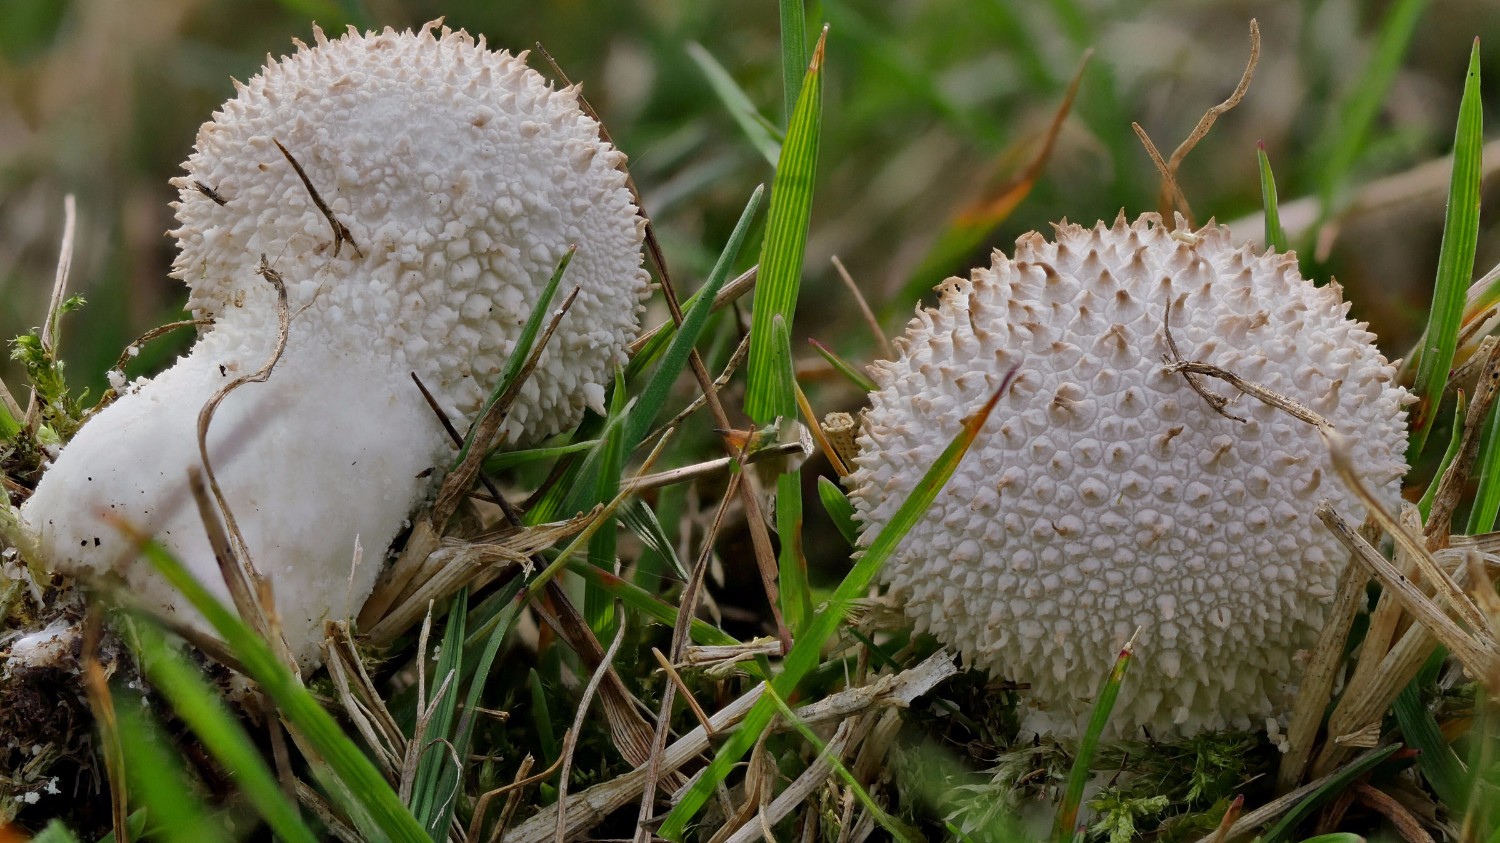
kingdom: Fungi
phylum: Basidiomycota
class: Agaricomycetes
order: Agaricales
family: Lycoperdaceae
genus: Lycoperdon
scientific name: Lycoperdon perlatum
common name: krystal-støvbold
